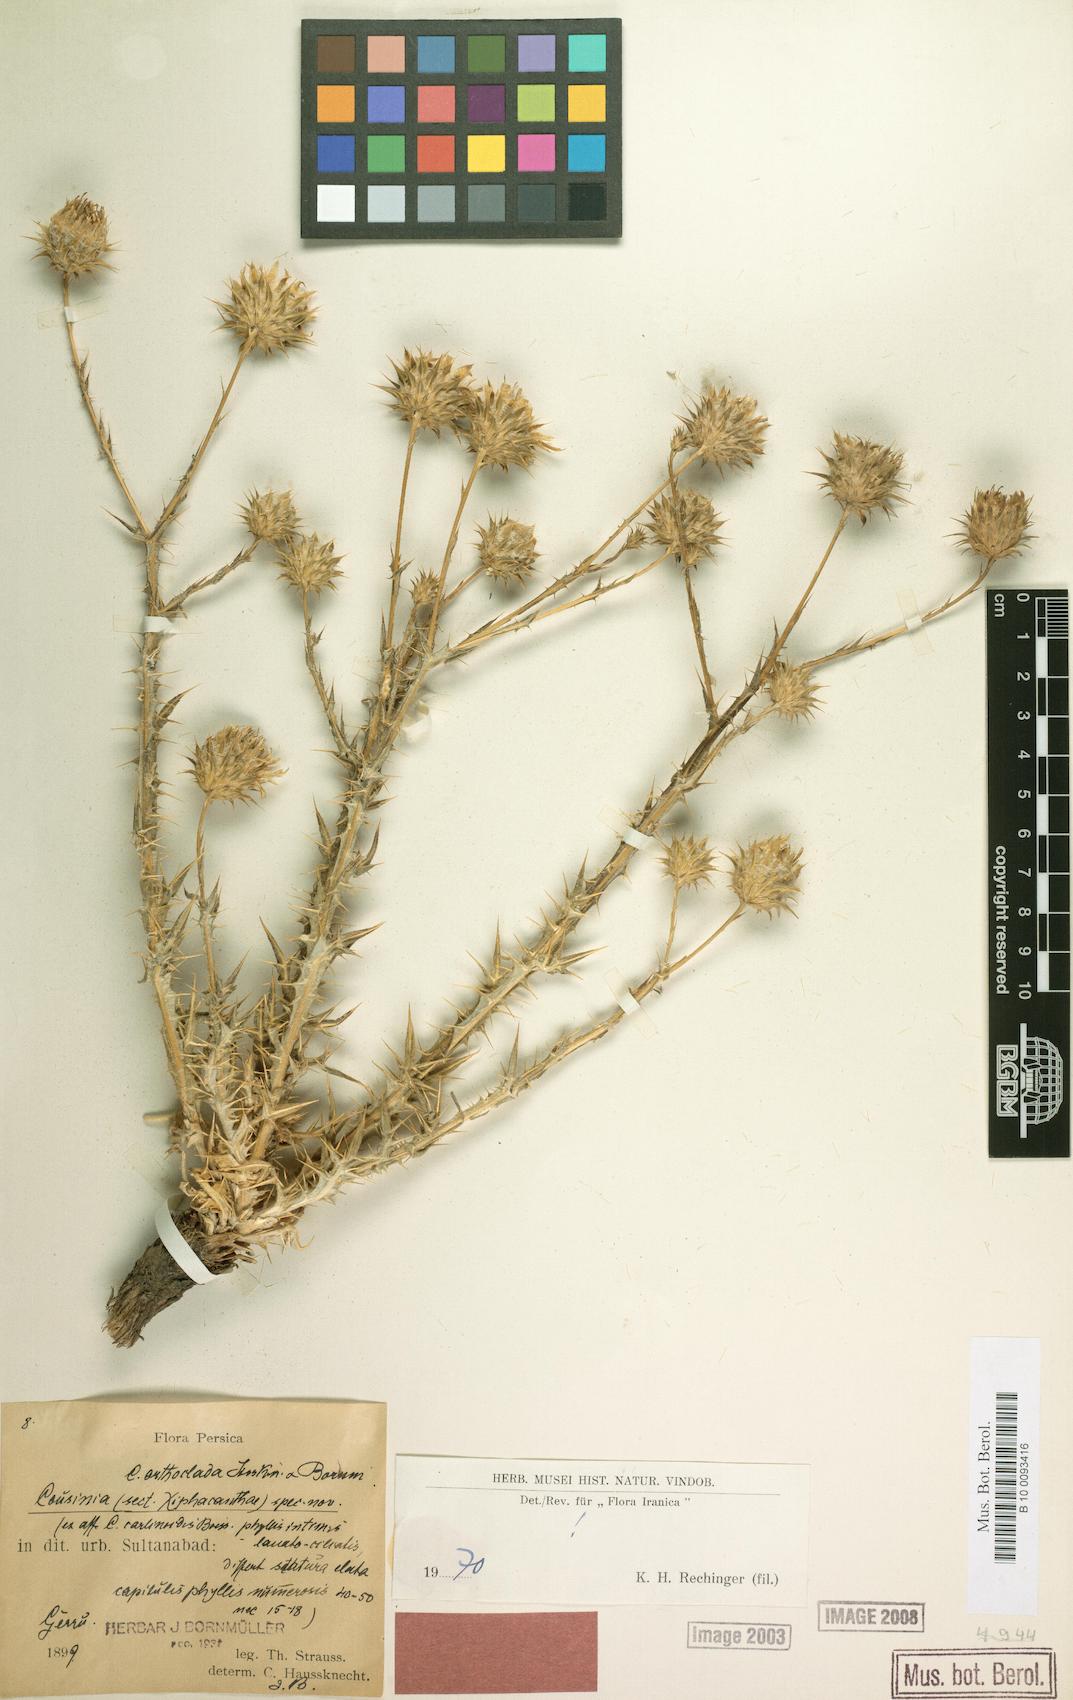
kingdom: Plantae
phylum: Tracheophyta
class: Magnoliopsida
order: Asterales
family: Asteraceae
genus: Cousinia
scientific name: Cousinia orthoclada
